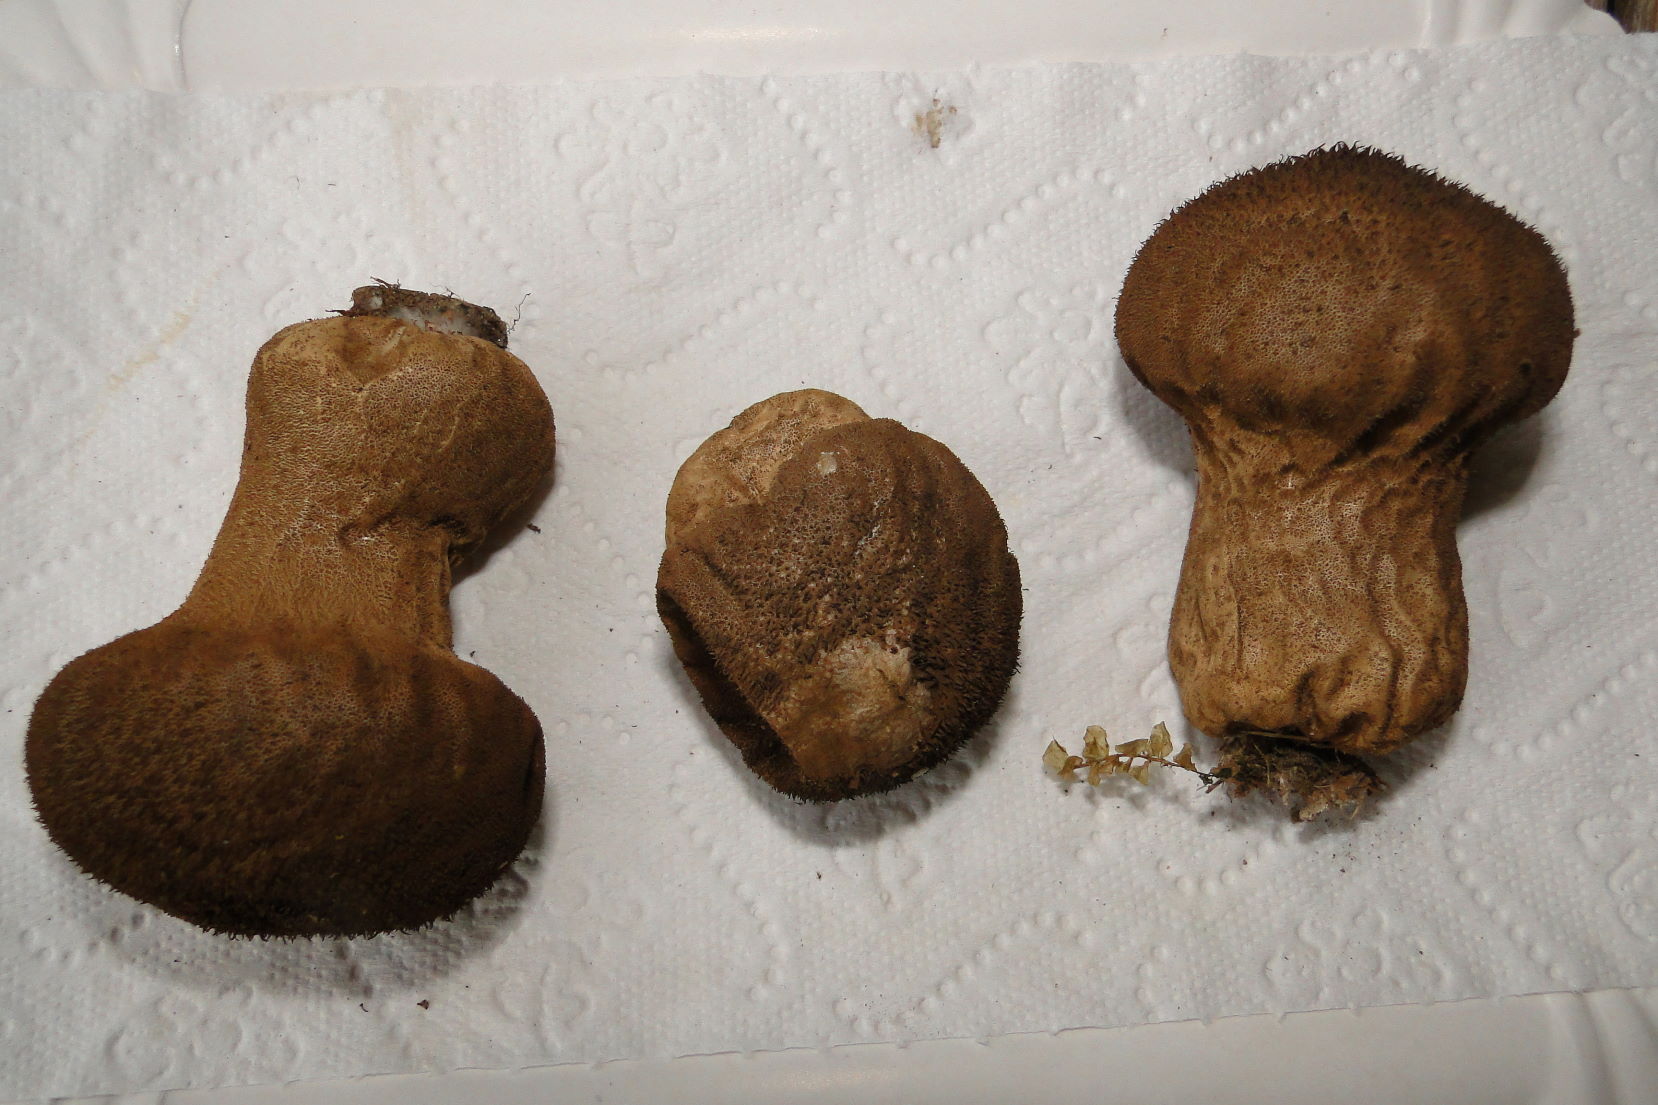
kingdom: Fungi
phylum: Basidiomycota
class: Agaricomycetes
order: Agaricales
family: Lycoperdaceae
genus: Lycoperdon
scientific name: Lycoperdon nigrescens
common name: sortagtig støvbold
